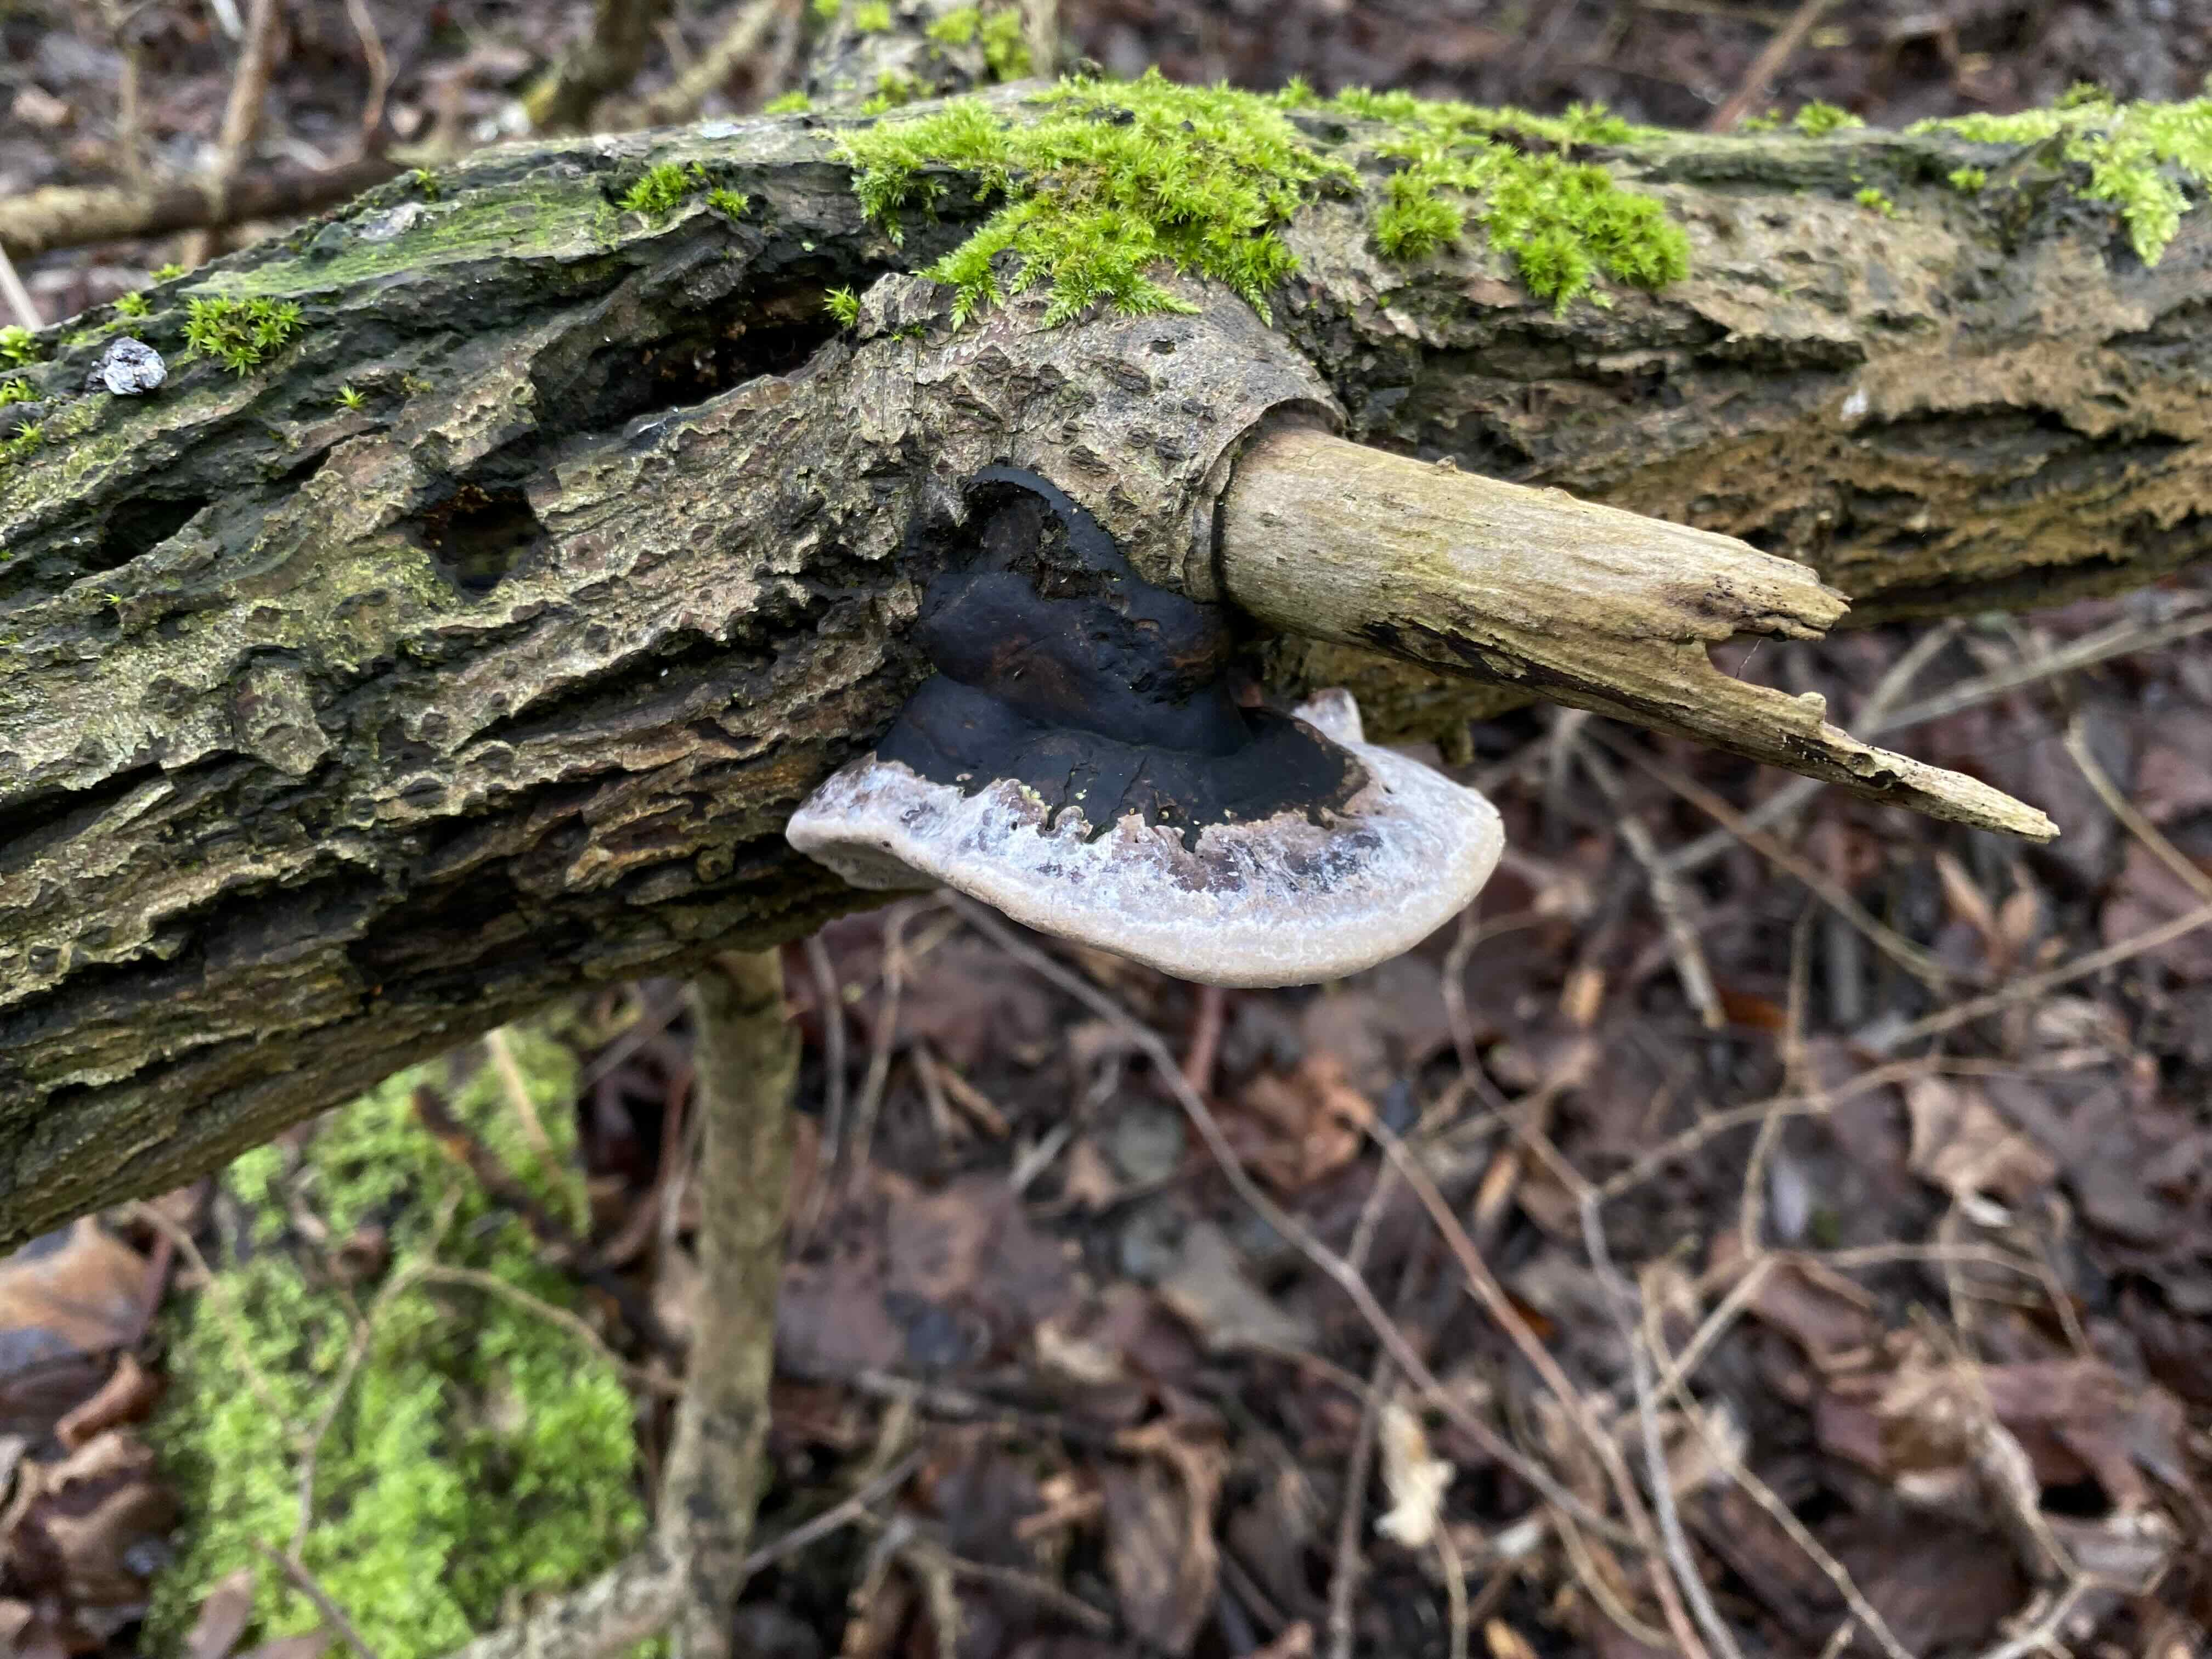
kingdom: Fungi
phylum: Basidiomycota
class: Agaricomycetes
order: Hymenochaetales
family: Hymenochaetaceae
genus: Phellinus
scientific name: Phellinus igniarius
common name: almindelig ildporesvamp
